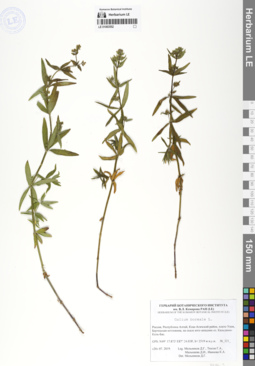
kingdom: Plantae
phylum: Tracheophyta
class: Magnoliopsida
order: Gentianales
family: Rubiaceae
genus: Galium
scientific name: Galium boreale
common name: Northern bedstraw
